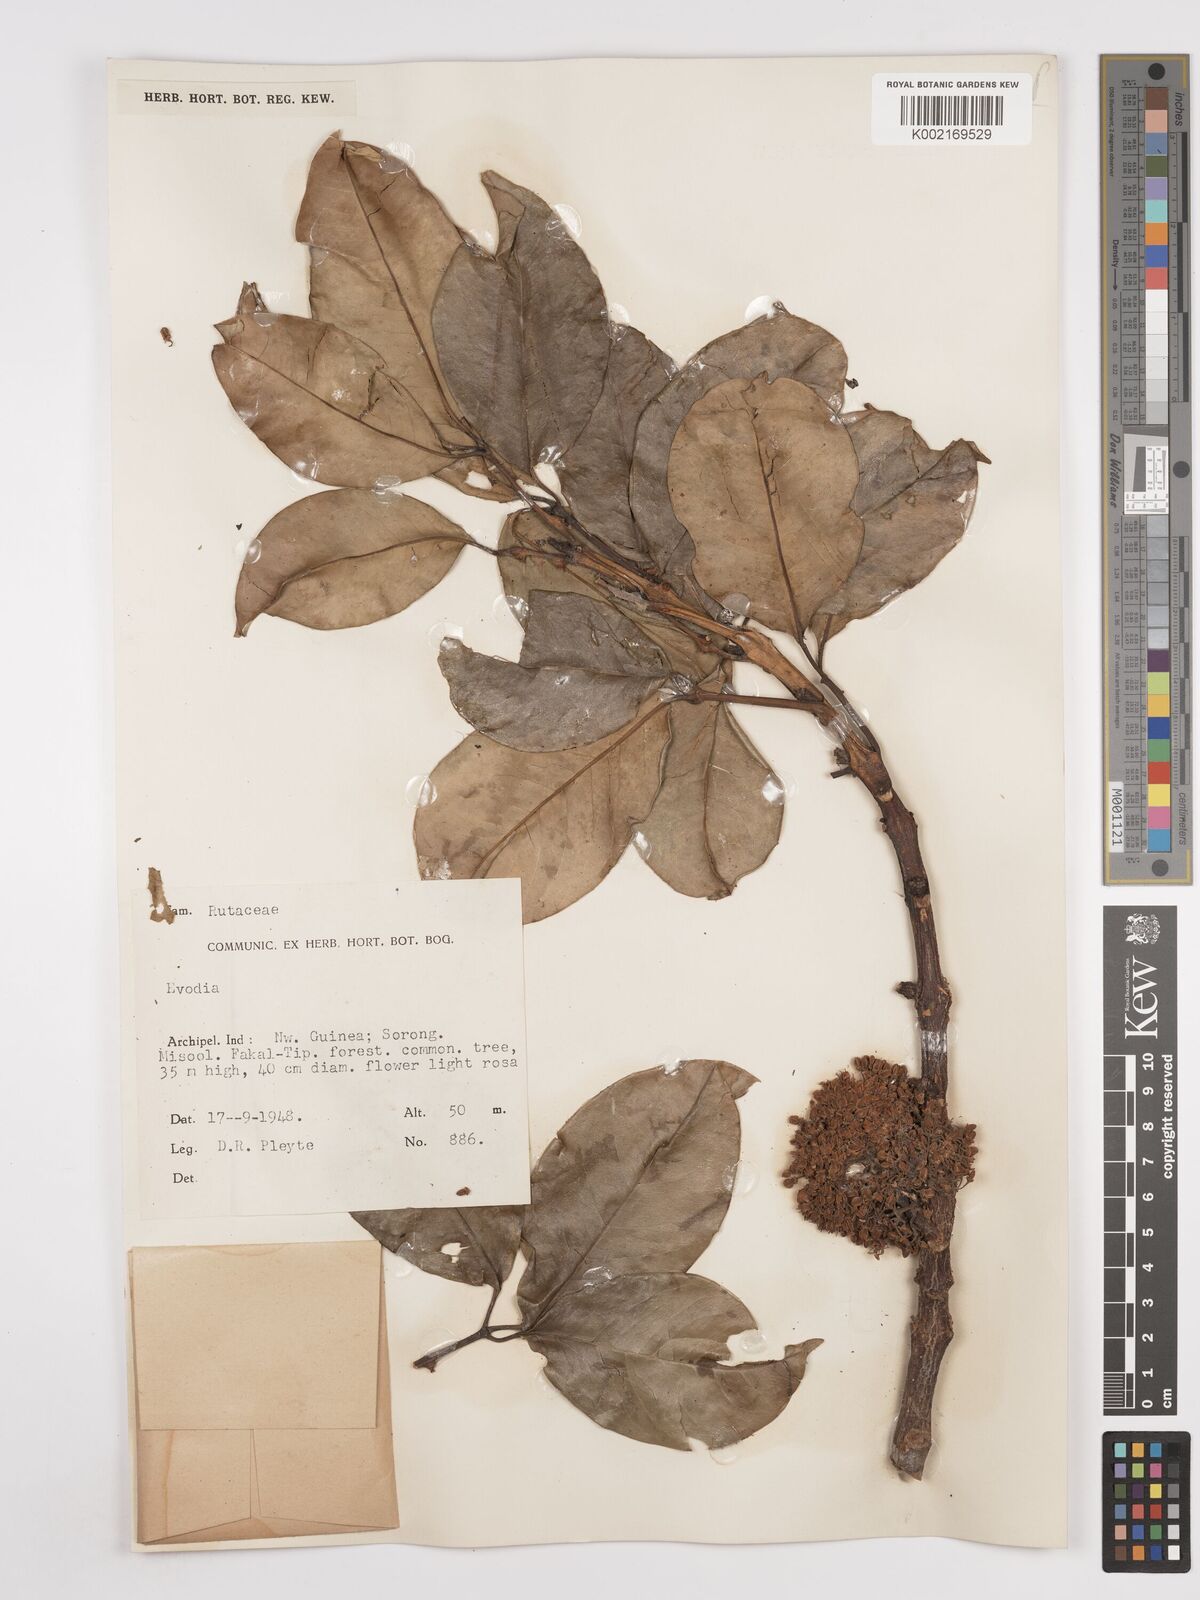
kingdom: Plantae
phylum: Tracheophyta
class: Magnoliopsida
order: Sapindales
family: Rutaceae
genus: Euodia
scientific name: Euodia
